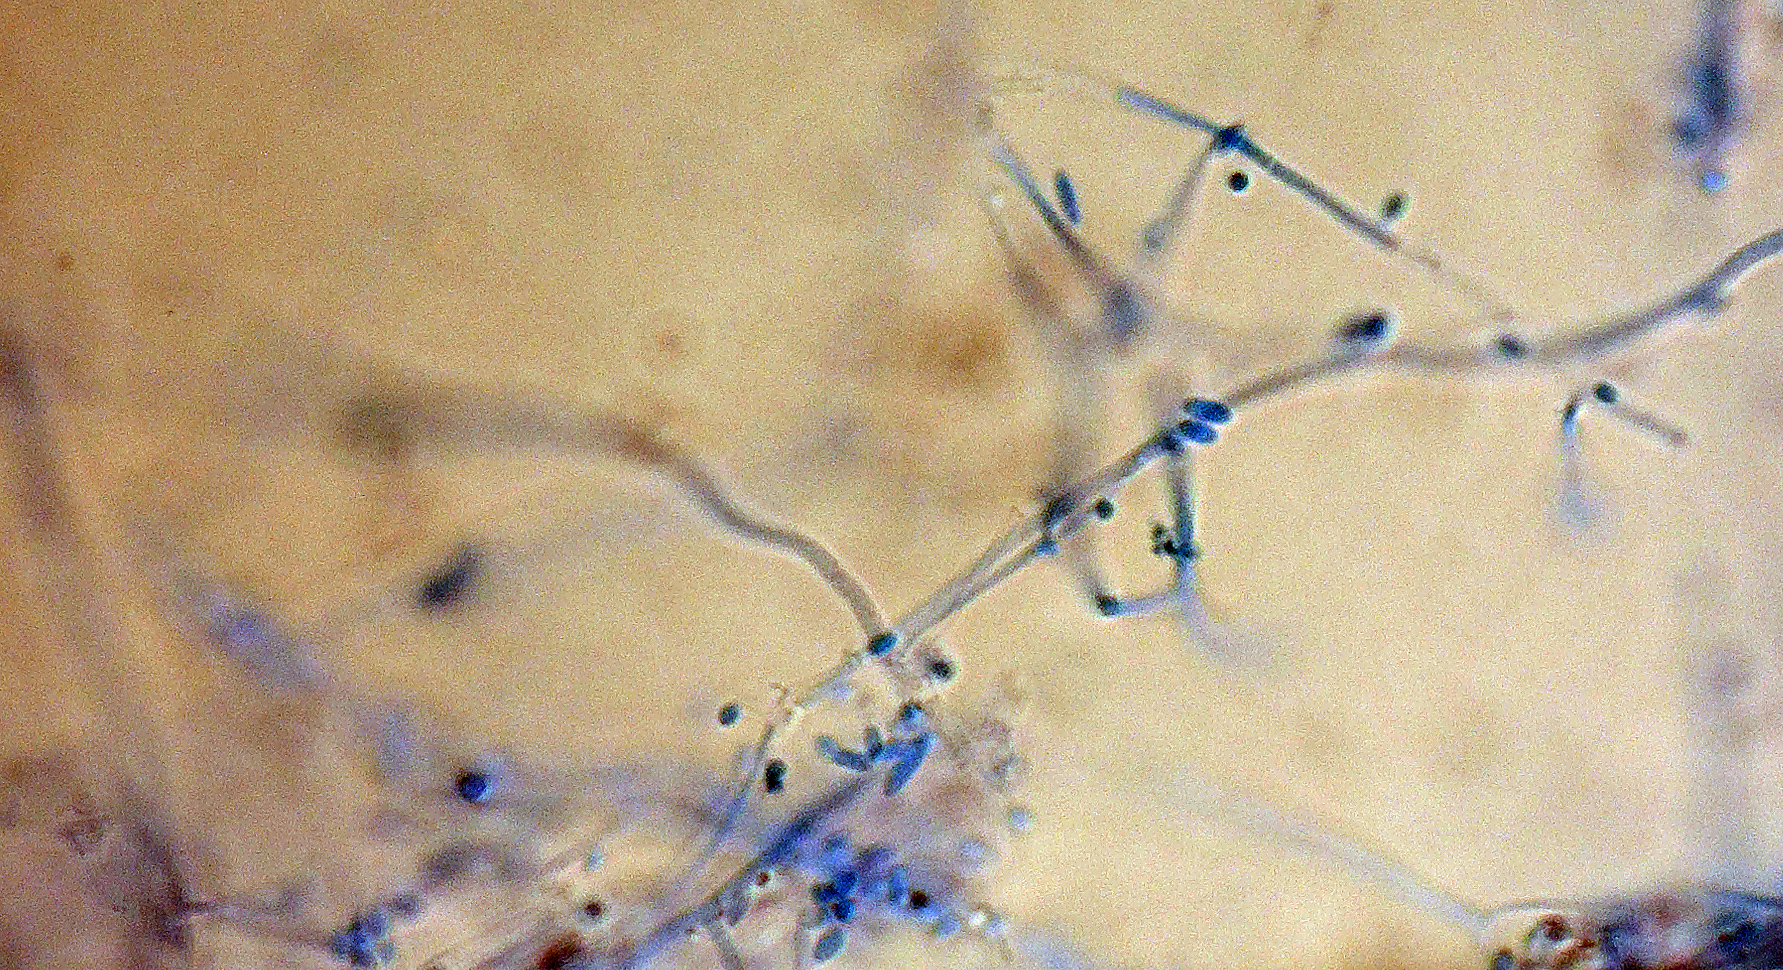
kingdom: Fungi
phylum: Ascomycota
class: Sordariomycetes
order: Hypocreales
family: Cordycipitaceae
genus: Lecanicillium
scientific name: Lecanicillium tenuipes
